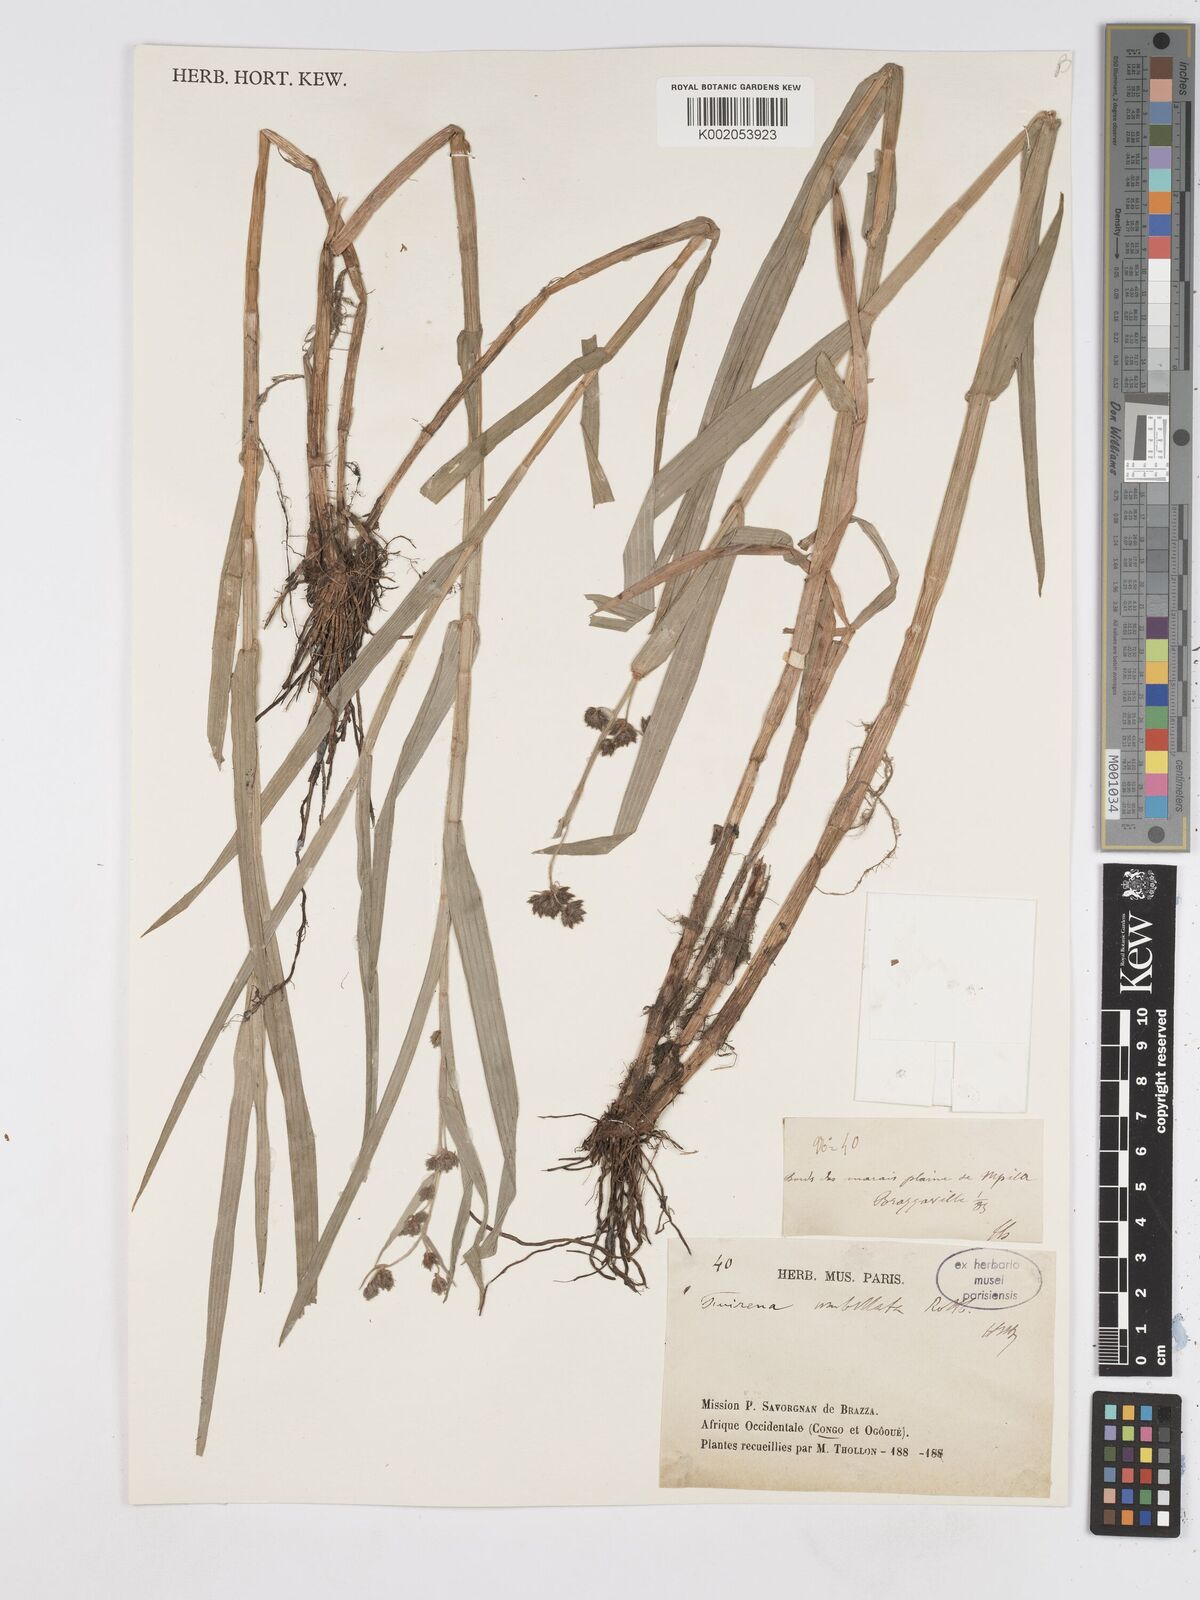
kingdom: Plantae
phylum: Tracheophyta
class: Liliopsida
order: Poales
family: Cyperaceae
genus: Fuirena
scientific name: Fuirena umbellata
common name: Yefen
